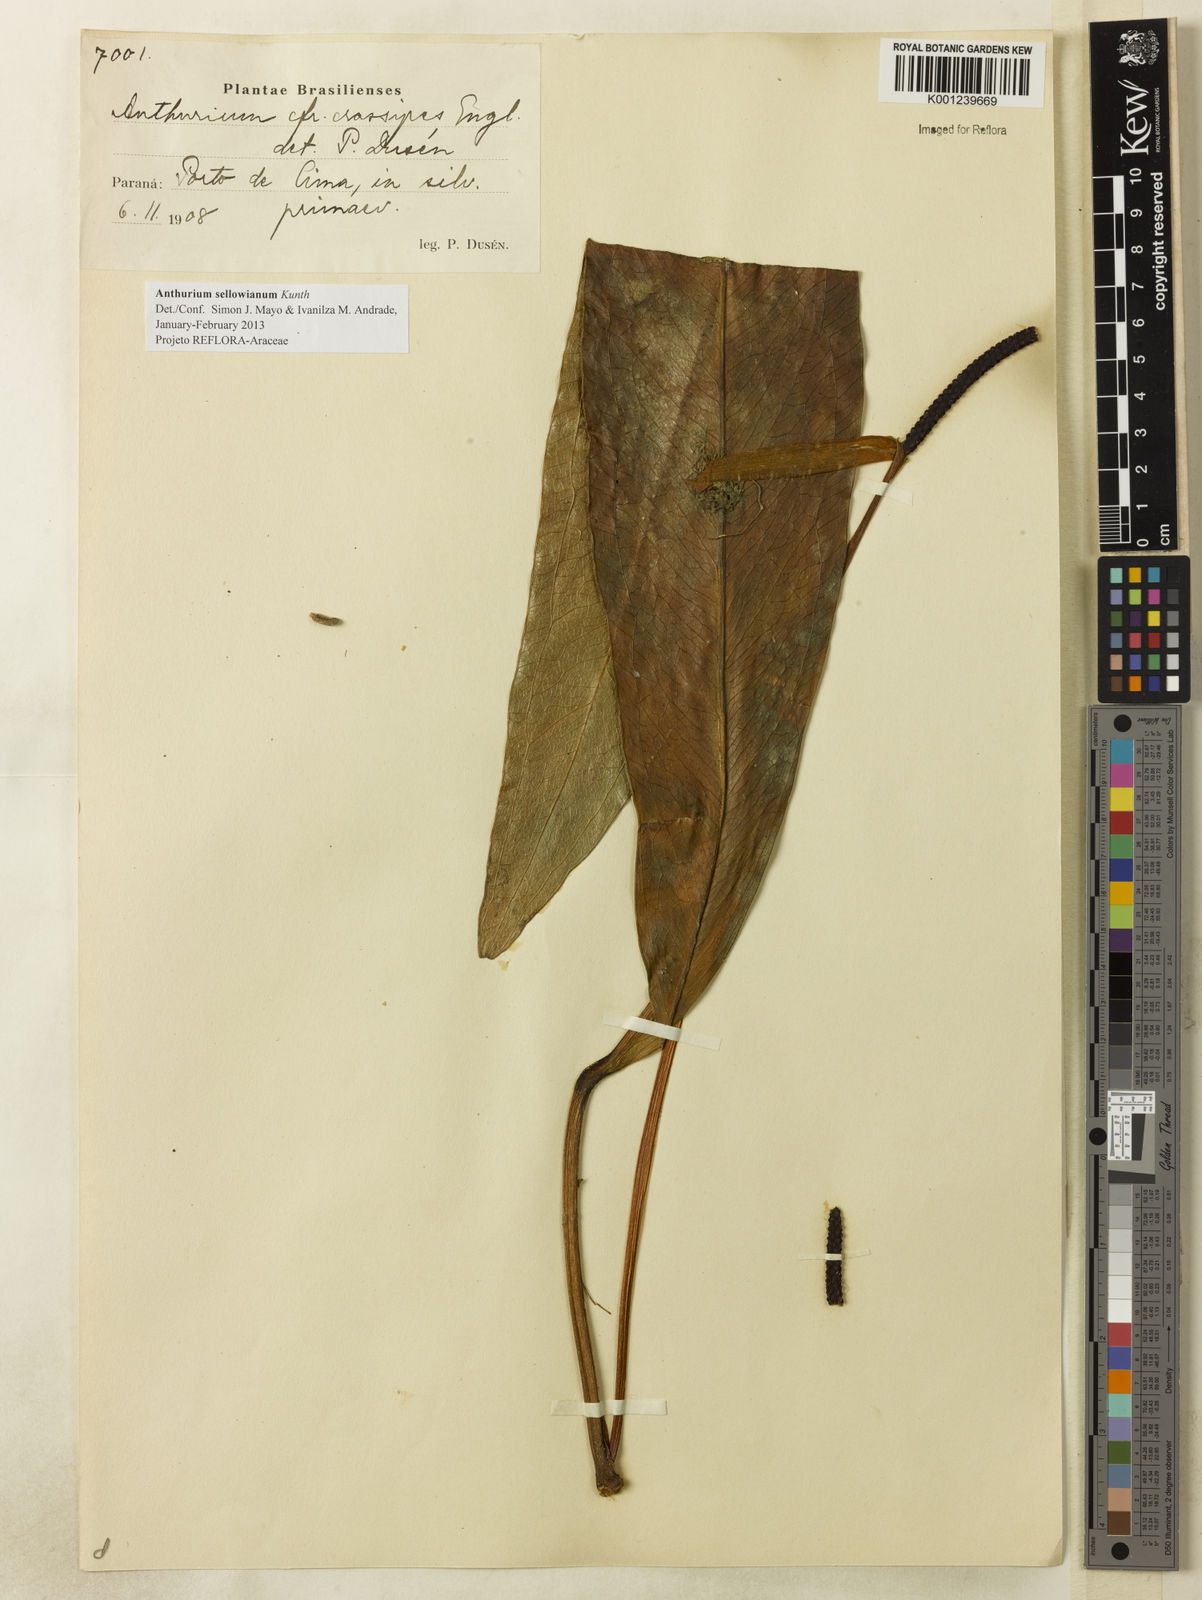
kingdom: Plantae
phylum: Tracheophyta
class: Liliopsida
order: Alismatales
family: Araceae
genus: Anthurium
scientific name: Anthurium sellowianum
